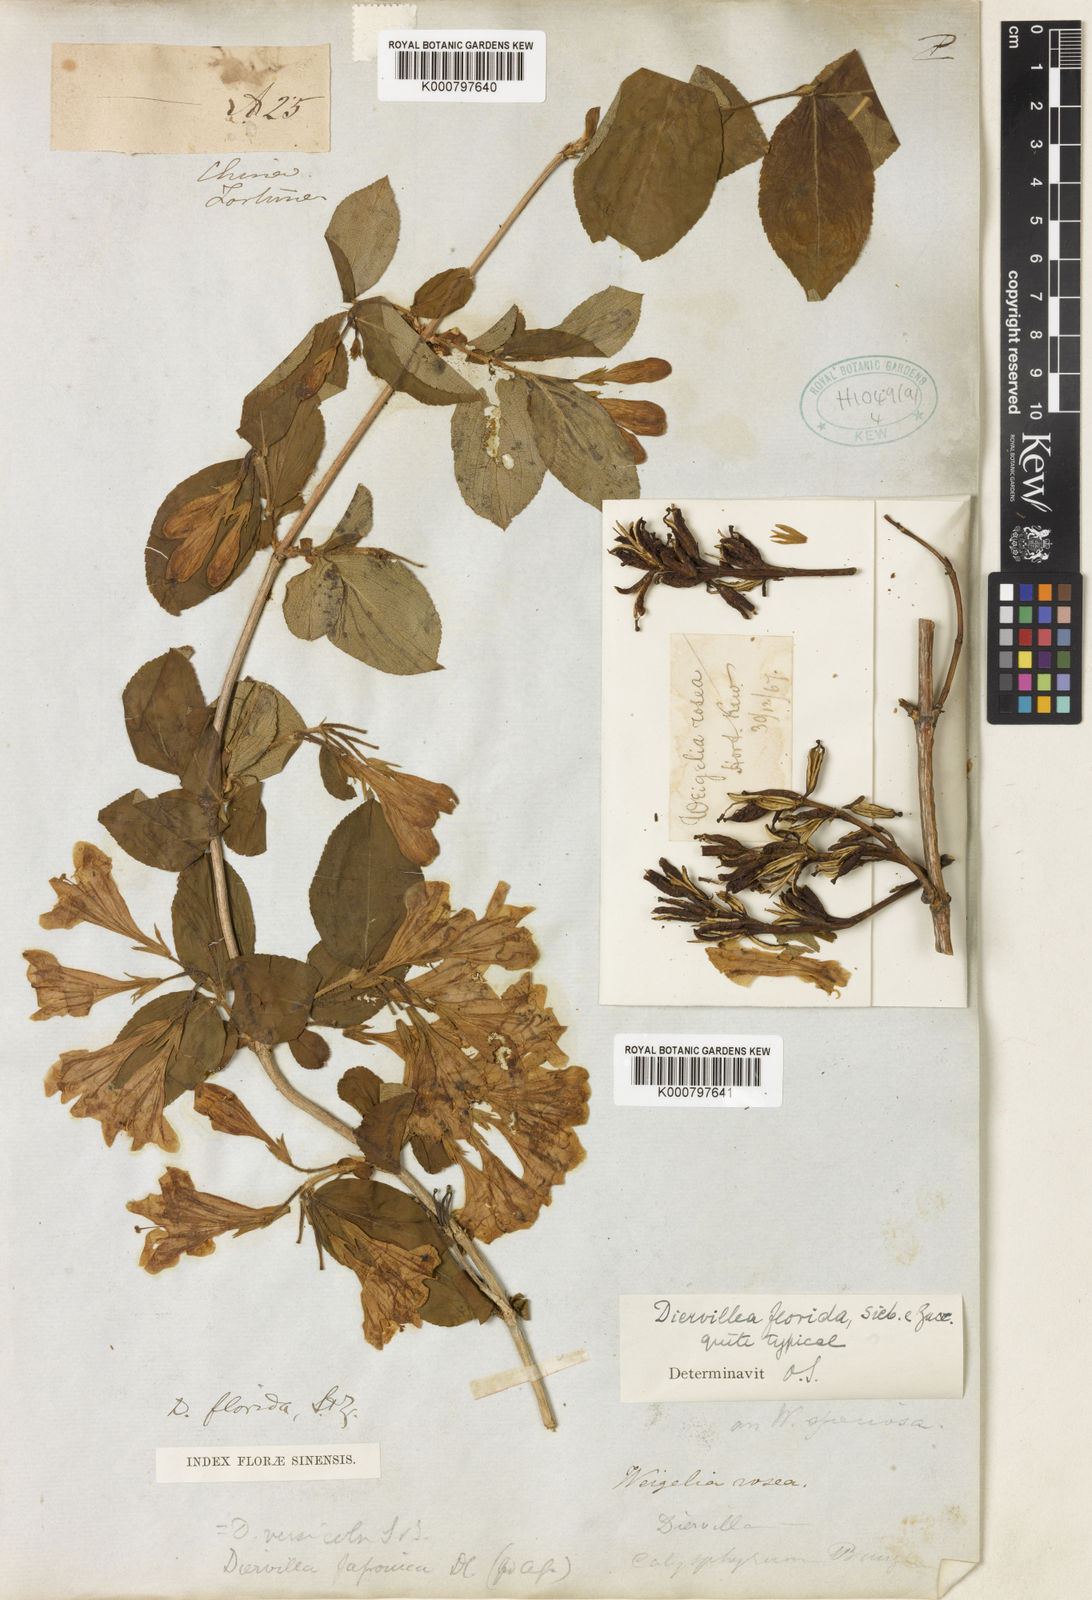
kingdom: Plantae
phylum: Tracheophyta
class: Magnoliopsida
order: Dipsacales
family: Caprifoliaceae
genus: Weigela
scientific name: Weigela florida
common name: Weigelia
